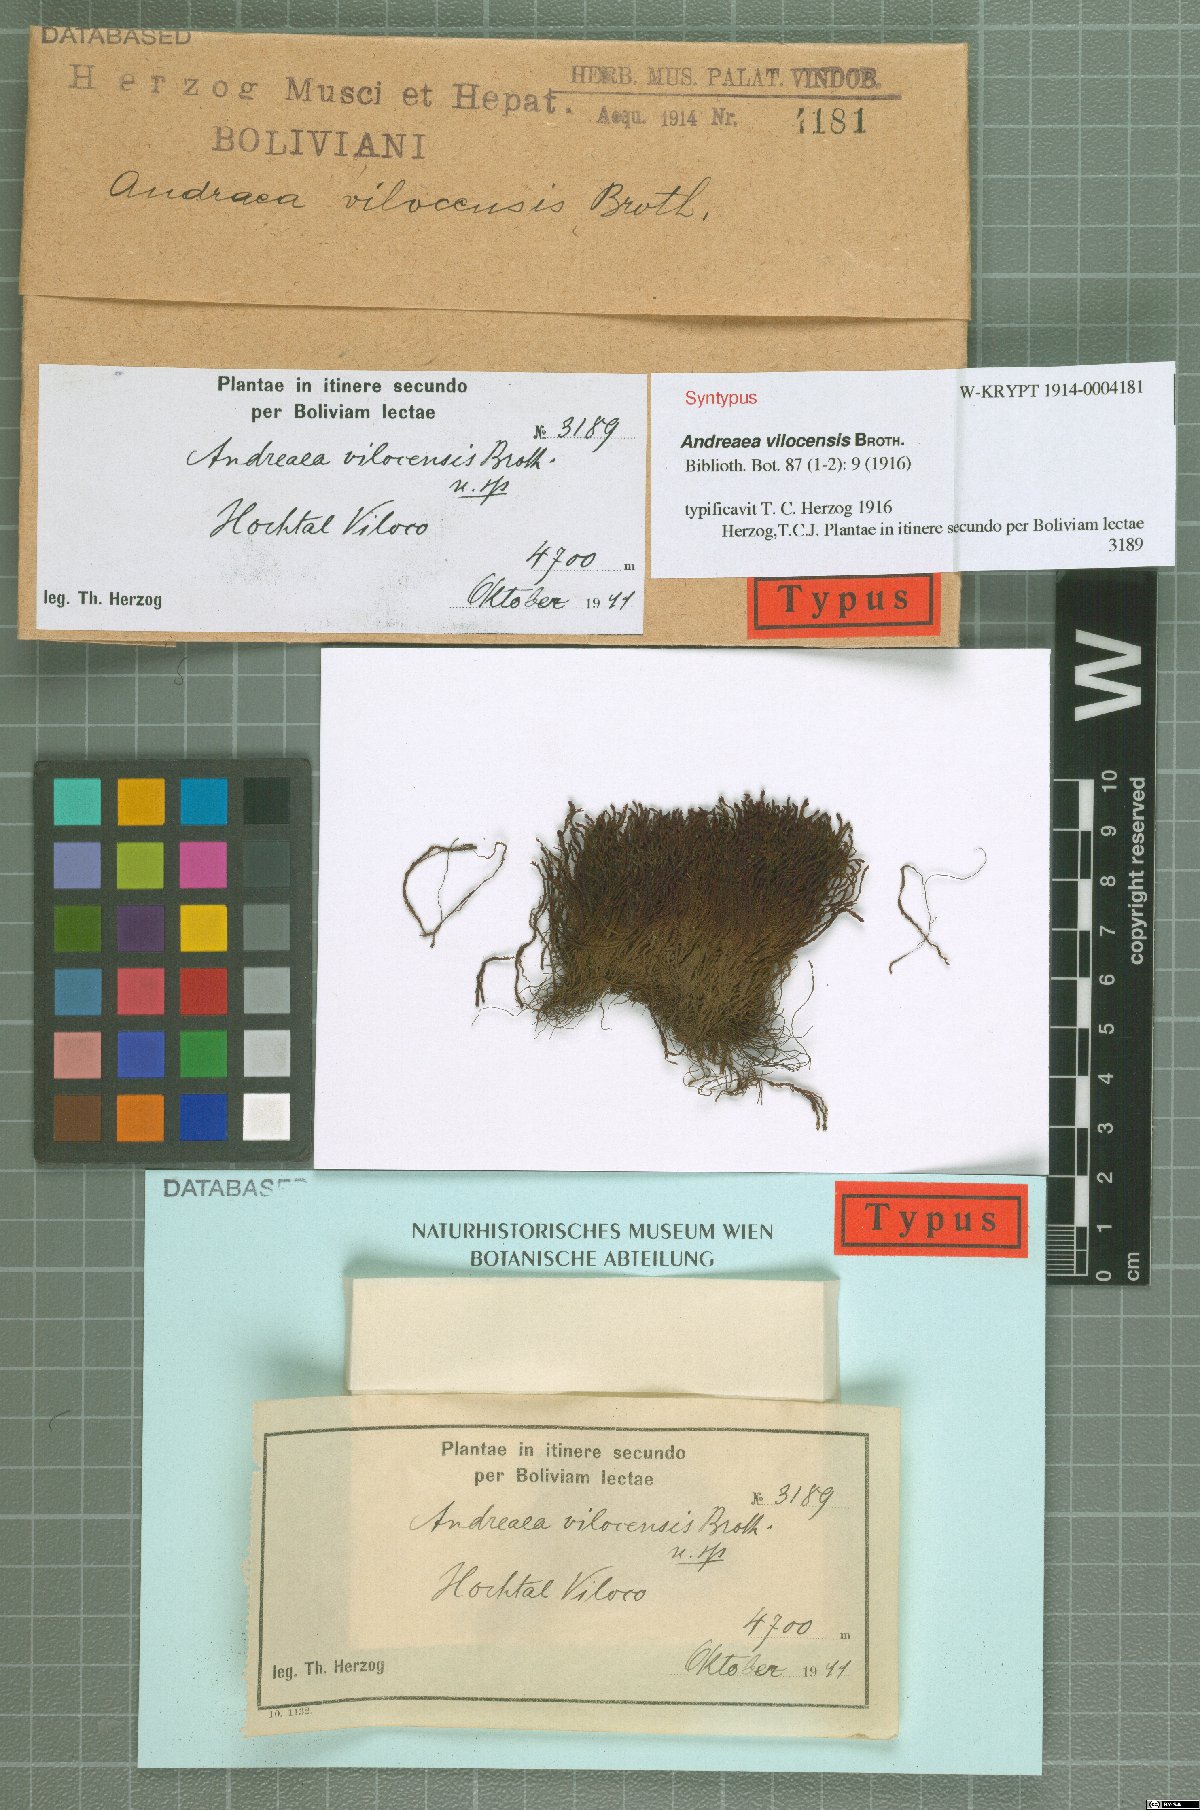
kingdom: Plantae
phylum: Bryophyta
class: Andreaeopsida
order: Andreaeales
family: Andreaeaceae
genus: Andreaea
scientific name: Andreaea vilocensis
